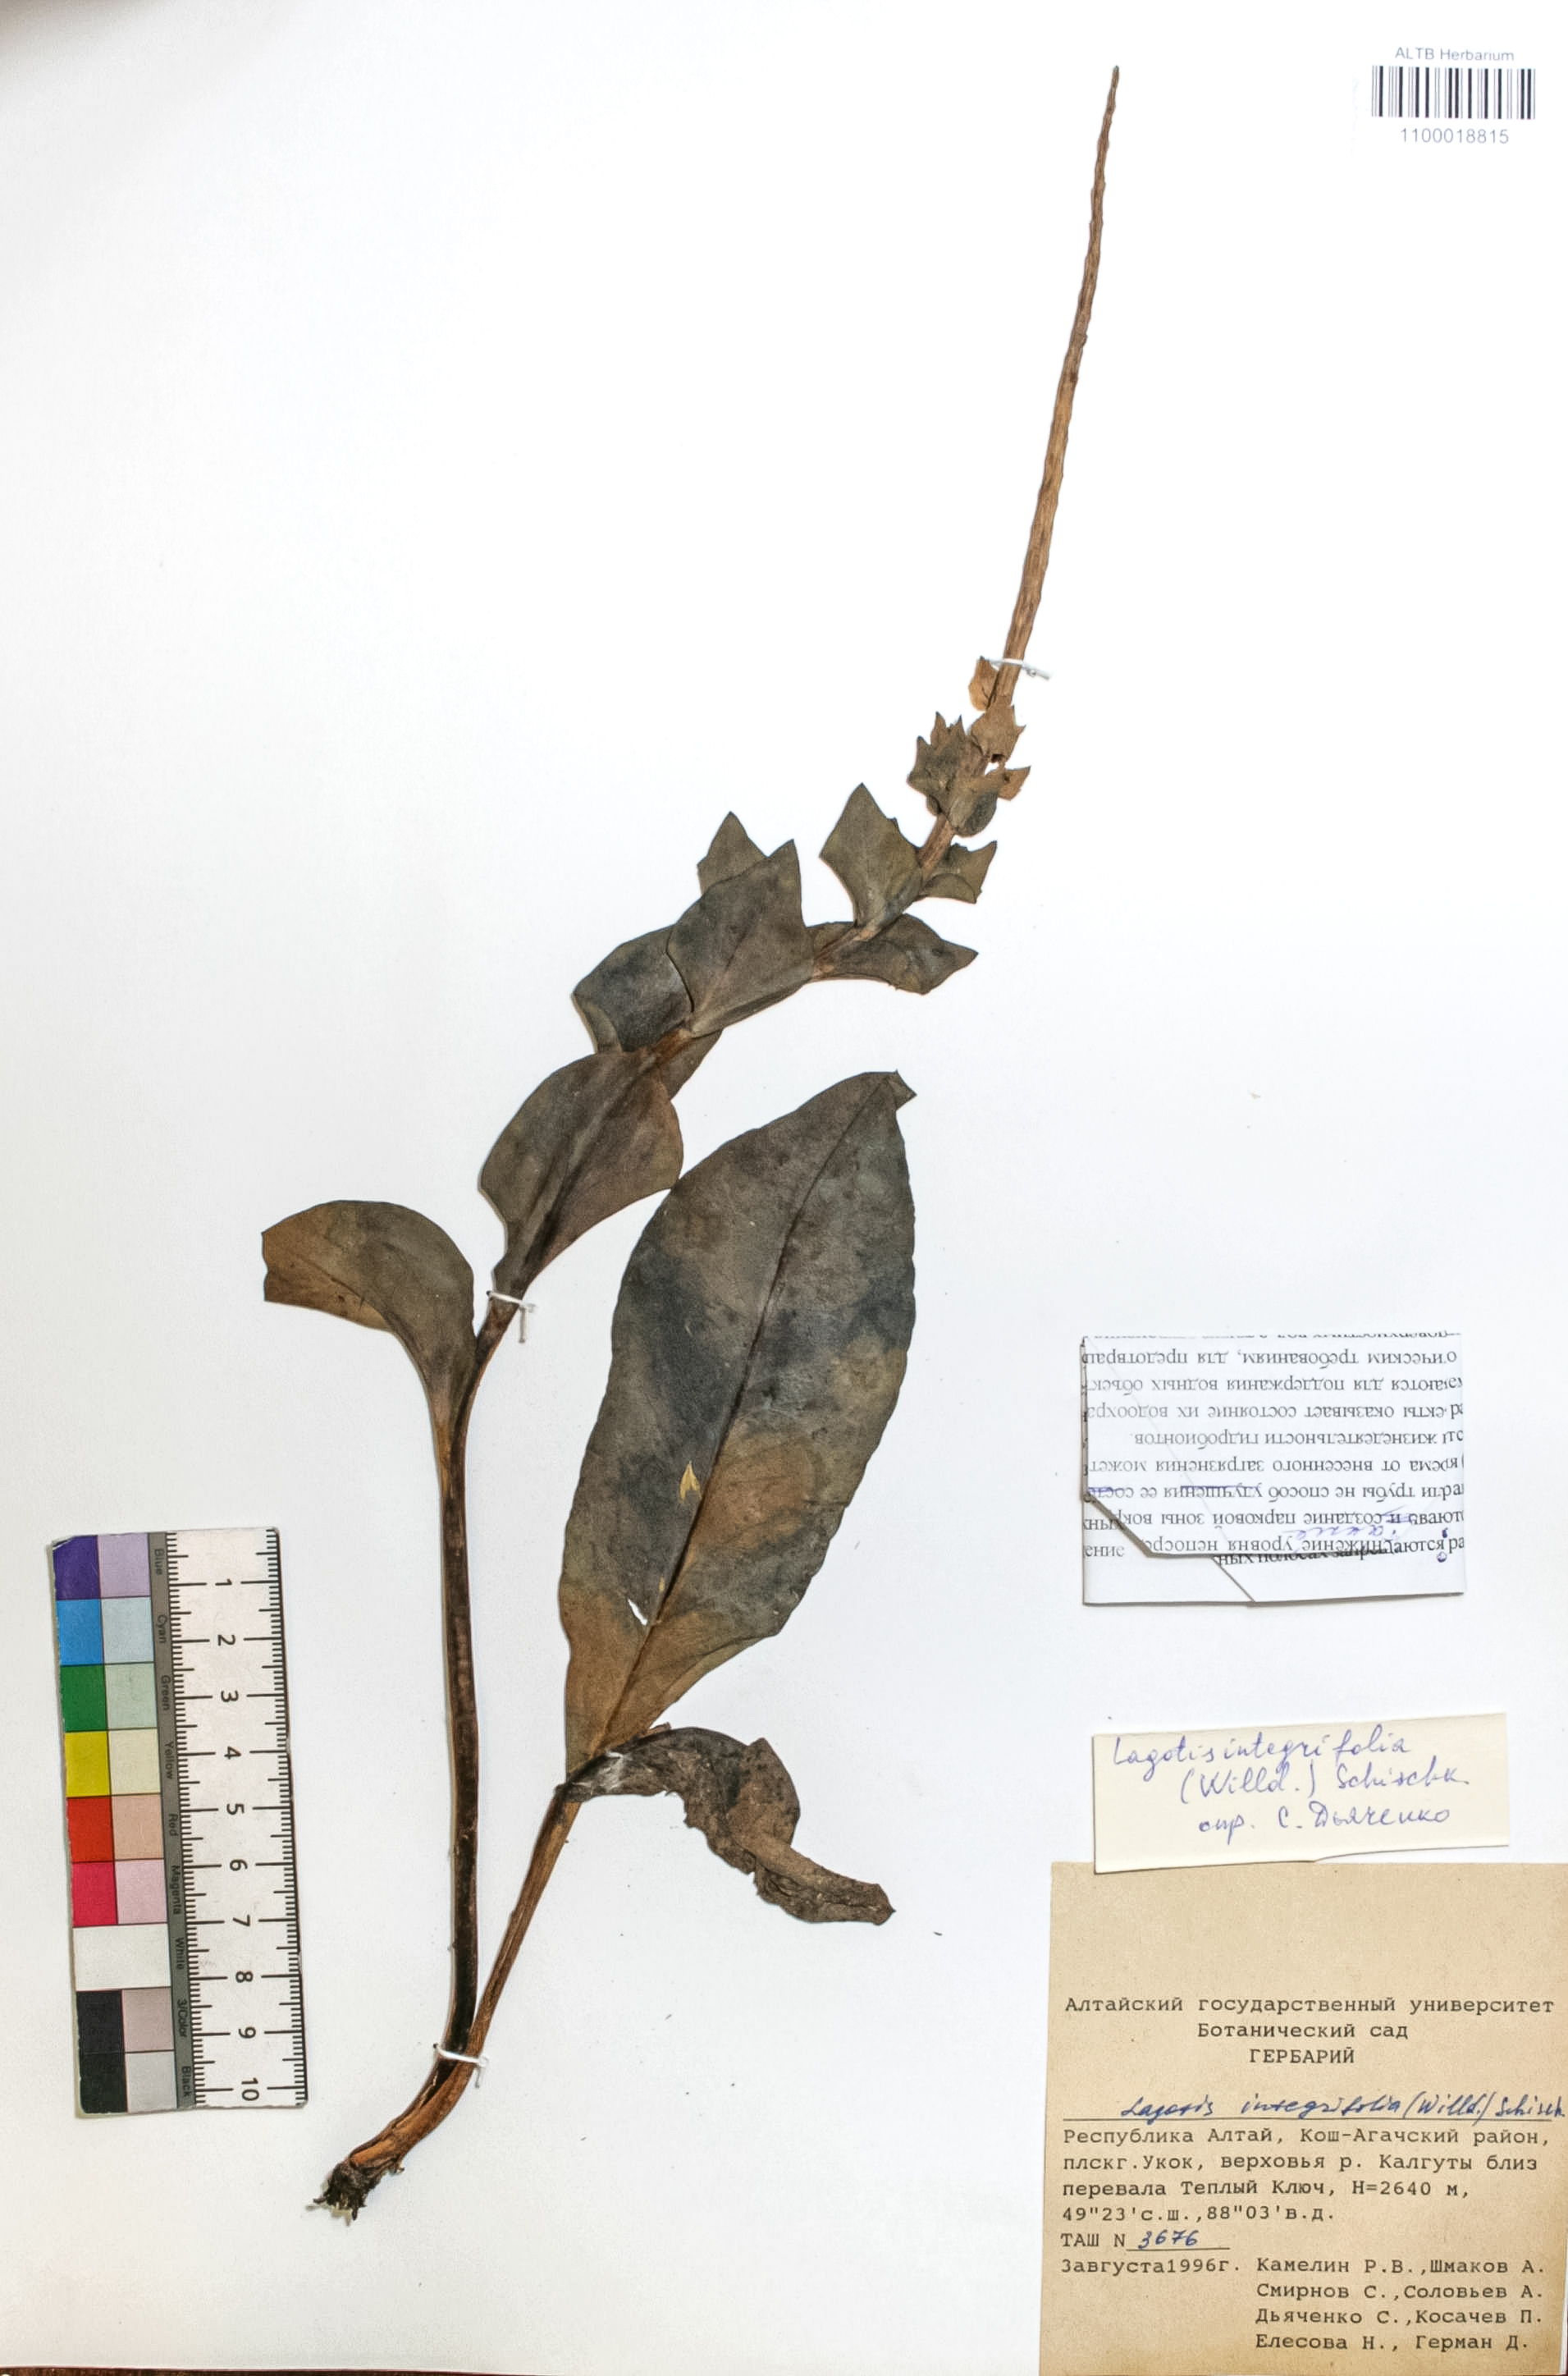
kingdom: Plantae
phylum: Tracheophyta
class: Magnoliopsida
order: Lamiales
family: Plantaginaceae
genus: Lagotis
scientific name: Lagotis integrifolia
